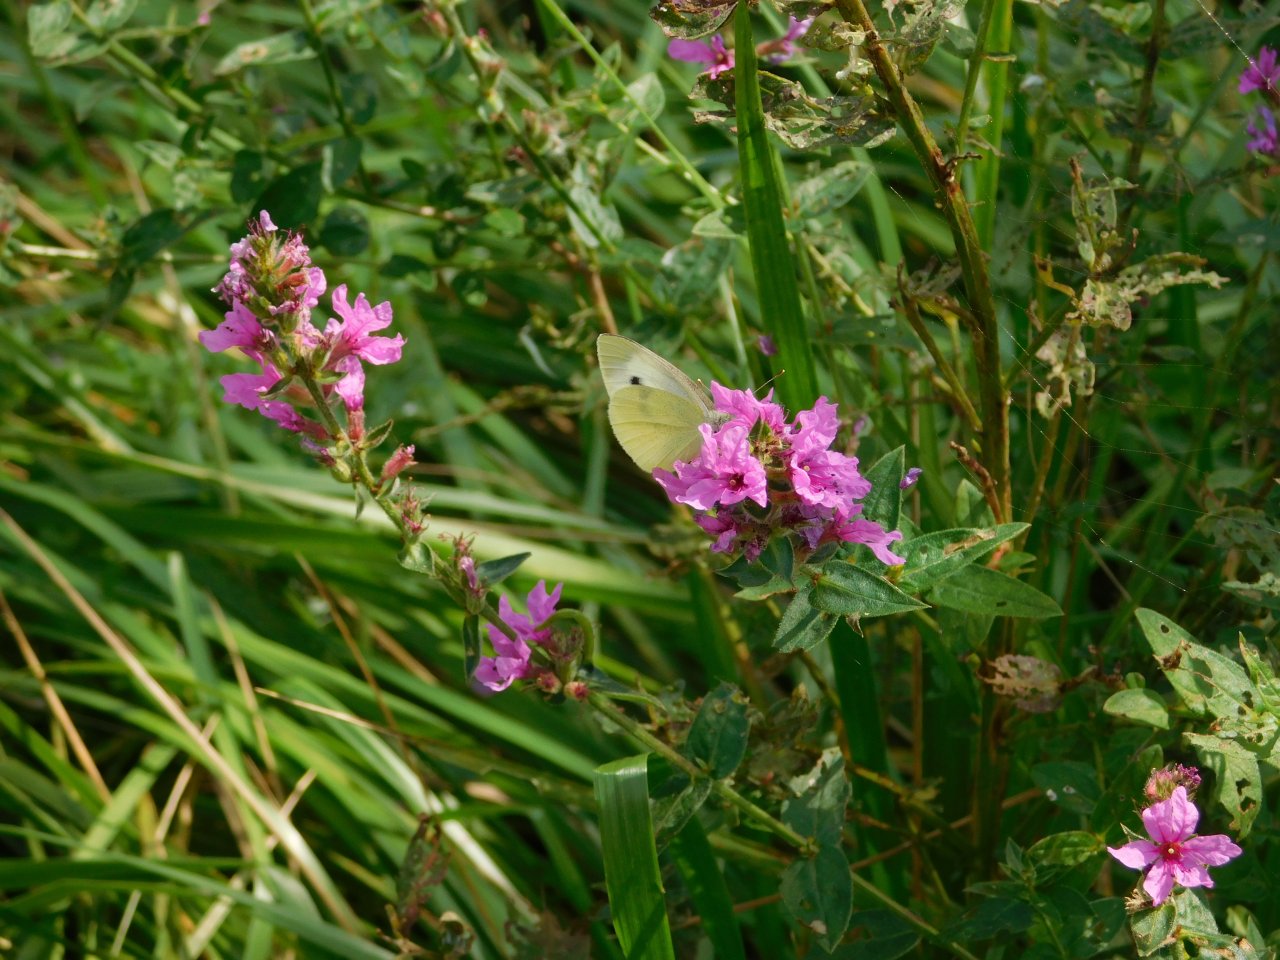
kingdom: Animalia
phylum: Arthropoda
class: Insecta
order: Lepidoptera
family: Pieridae
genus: Pieris
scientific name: Pieris rapae
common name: Cabbage White
